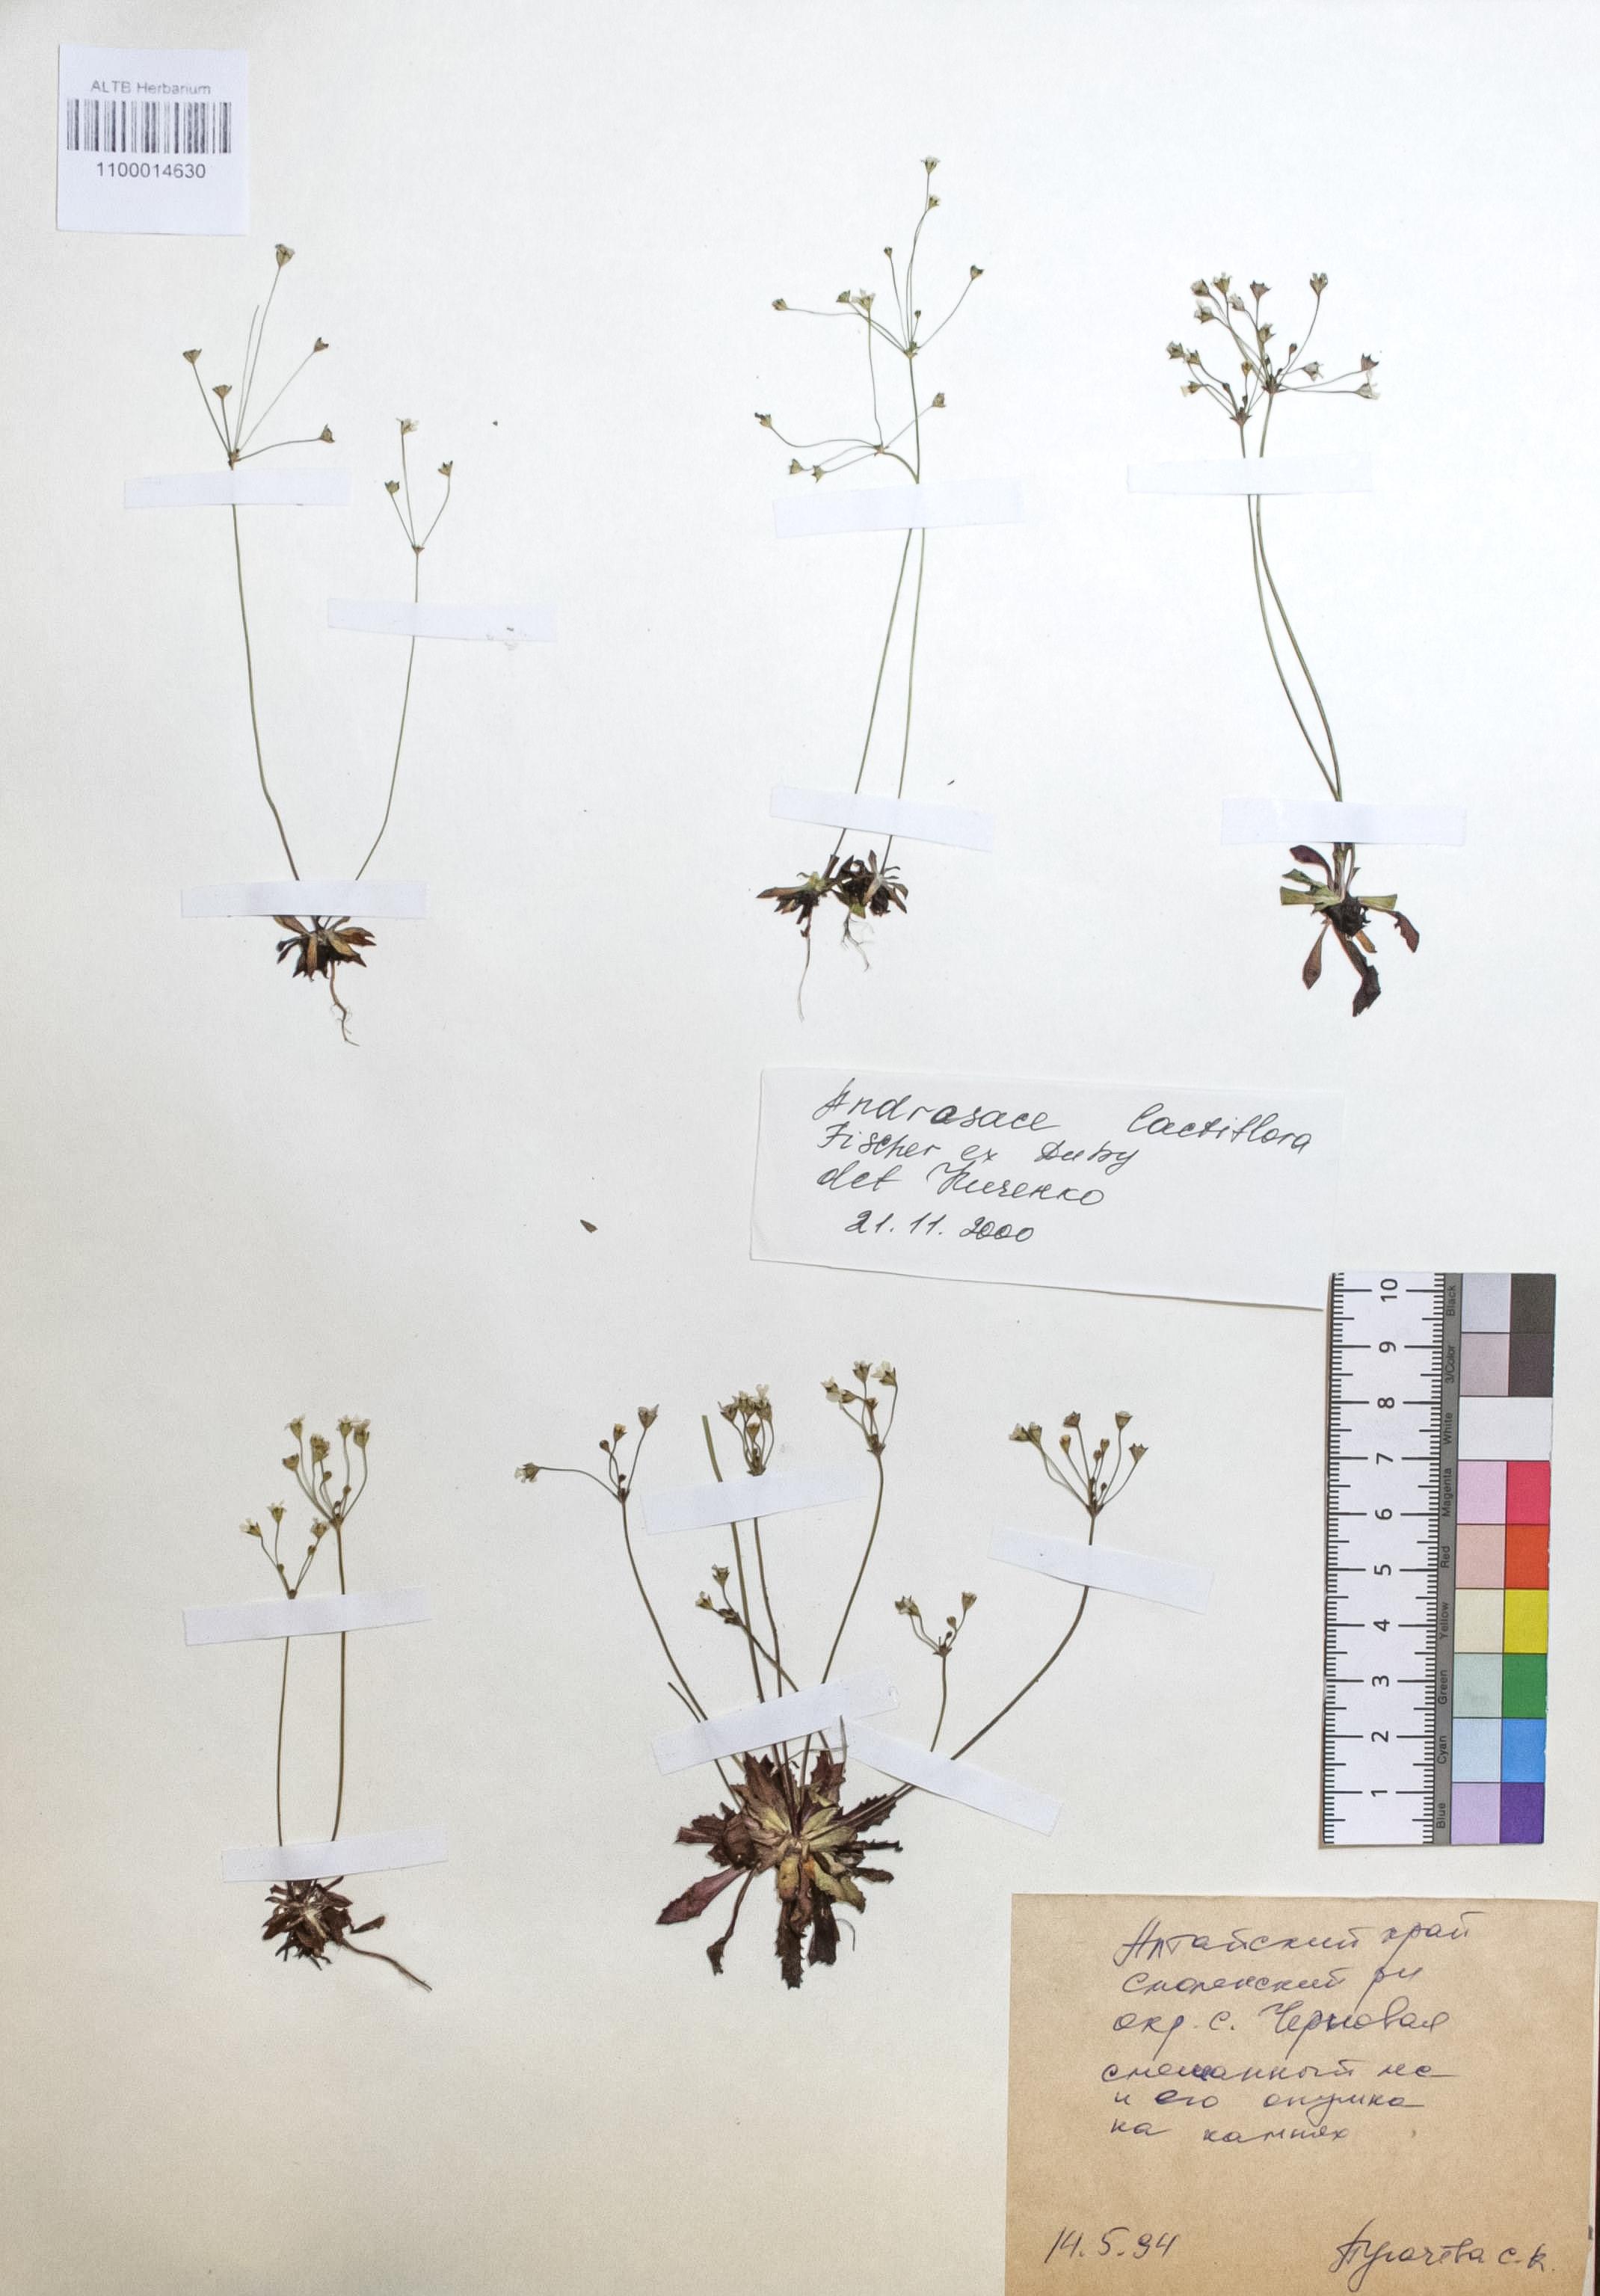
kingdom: Plantae
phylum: Tracheophyta
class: Magnoliopsida
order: Ericales
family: Primulaceae
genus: Androsace
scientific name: Androsace lactiflora
